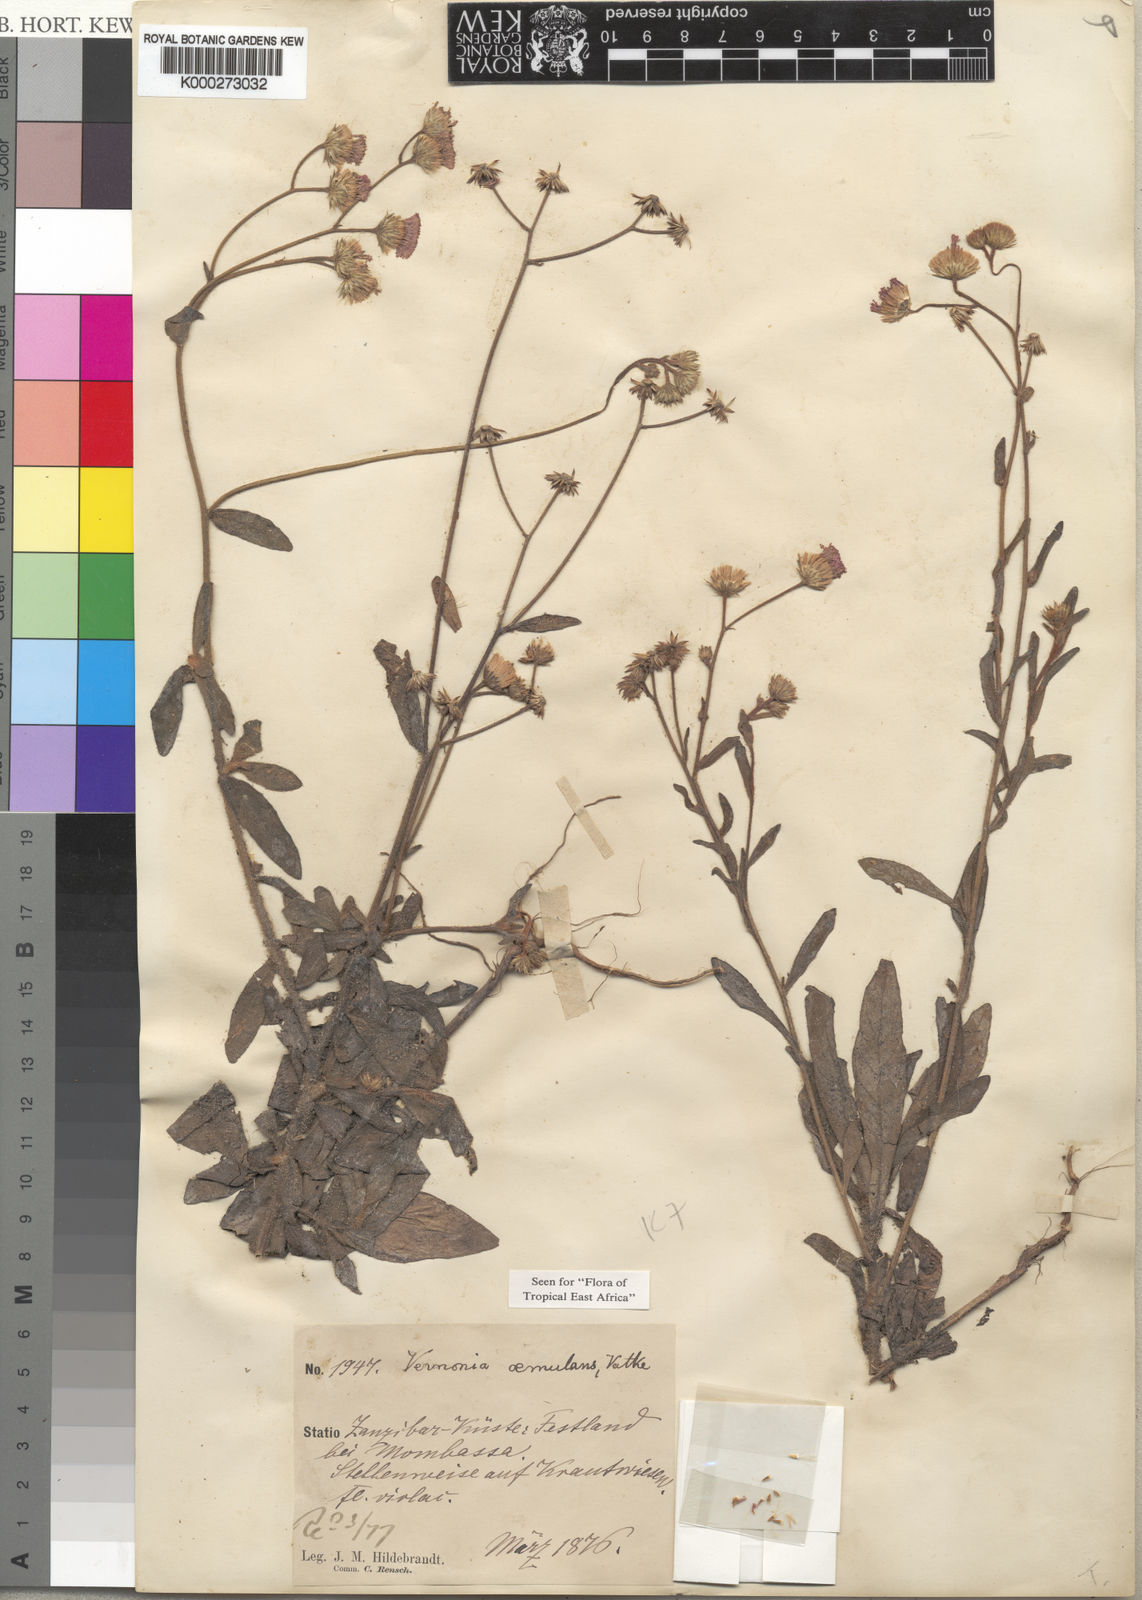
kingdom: Plantae
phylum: Tracheophyta
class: Magnoliopsida
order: Asterales
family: Asteraceae
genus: Vernoniastrum
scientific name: Vernoniastrum aemulans
